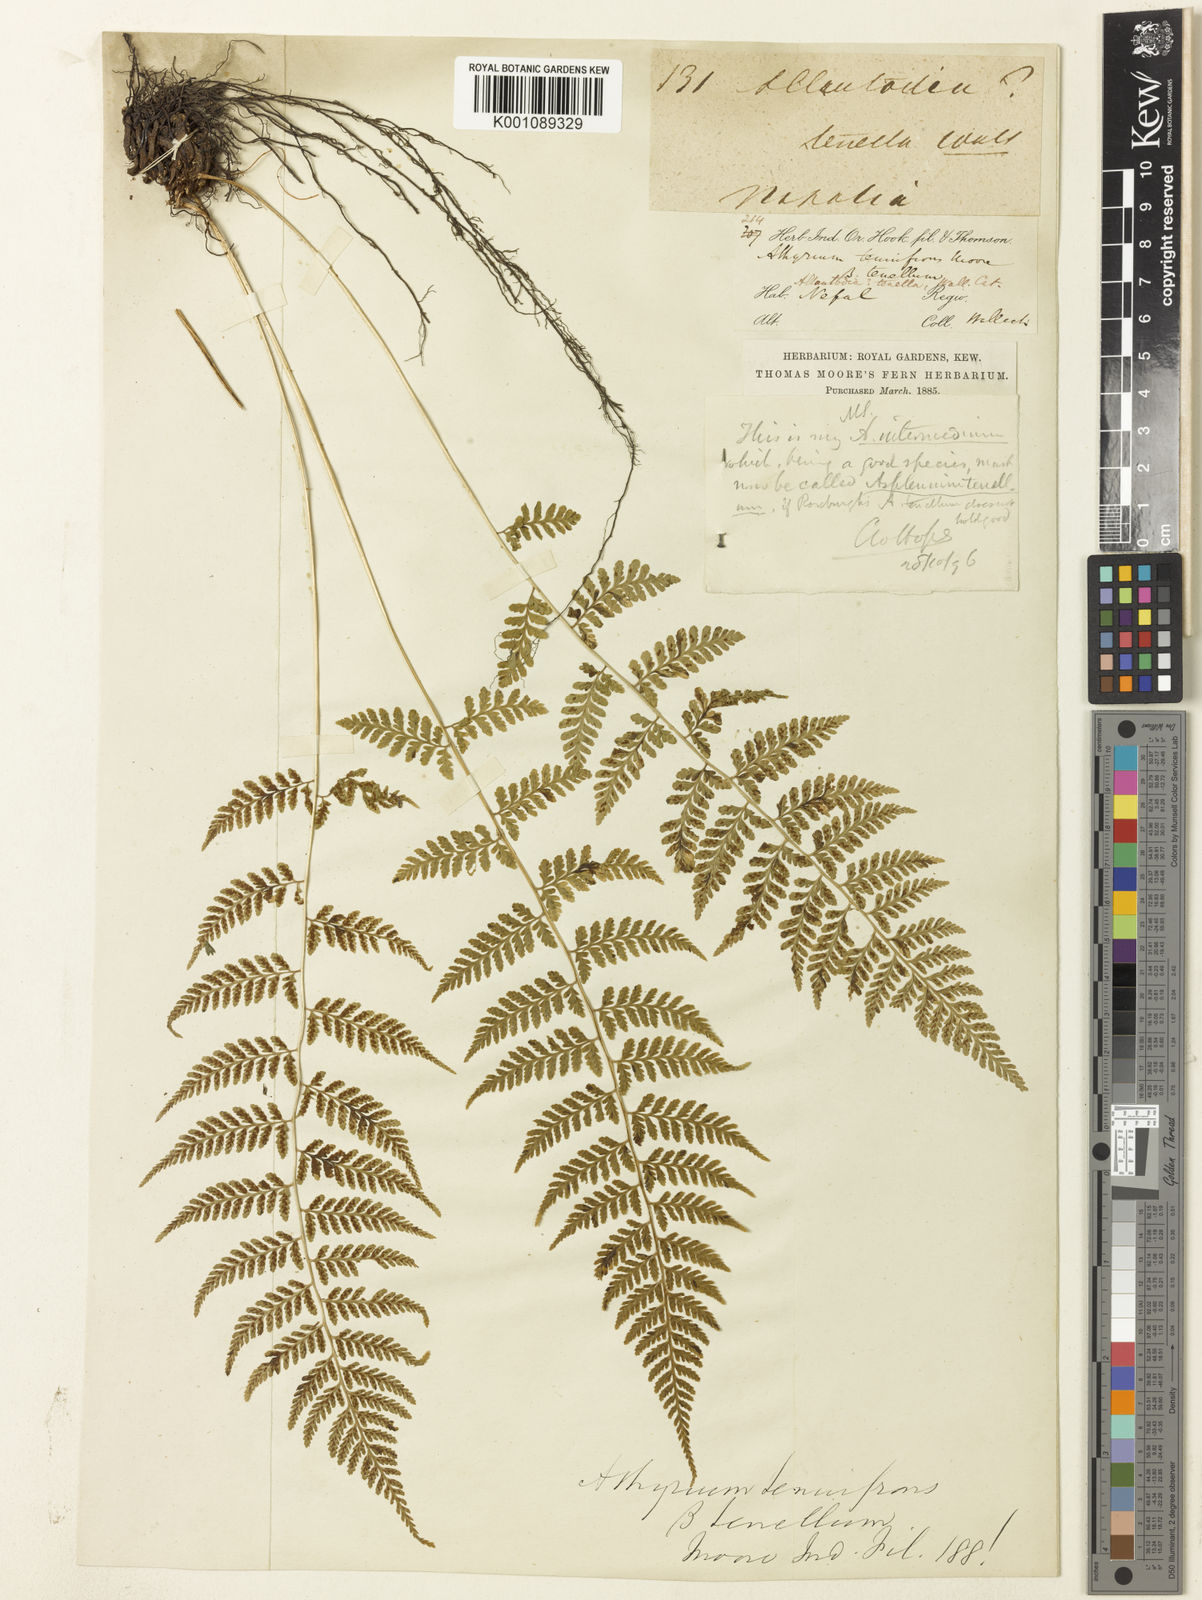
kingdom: Plantae
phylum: Tracheophyta
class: Polypodiopsida
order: Polypodiales
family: Athyriaceae
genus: Athyrium
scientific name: Athyrium setiferum
